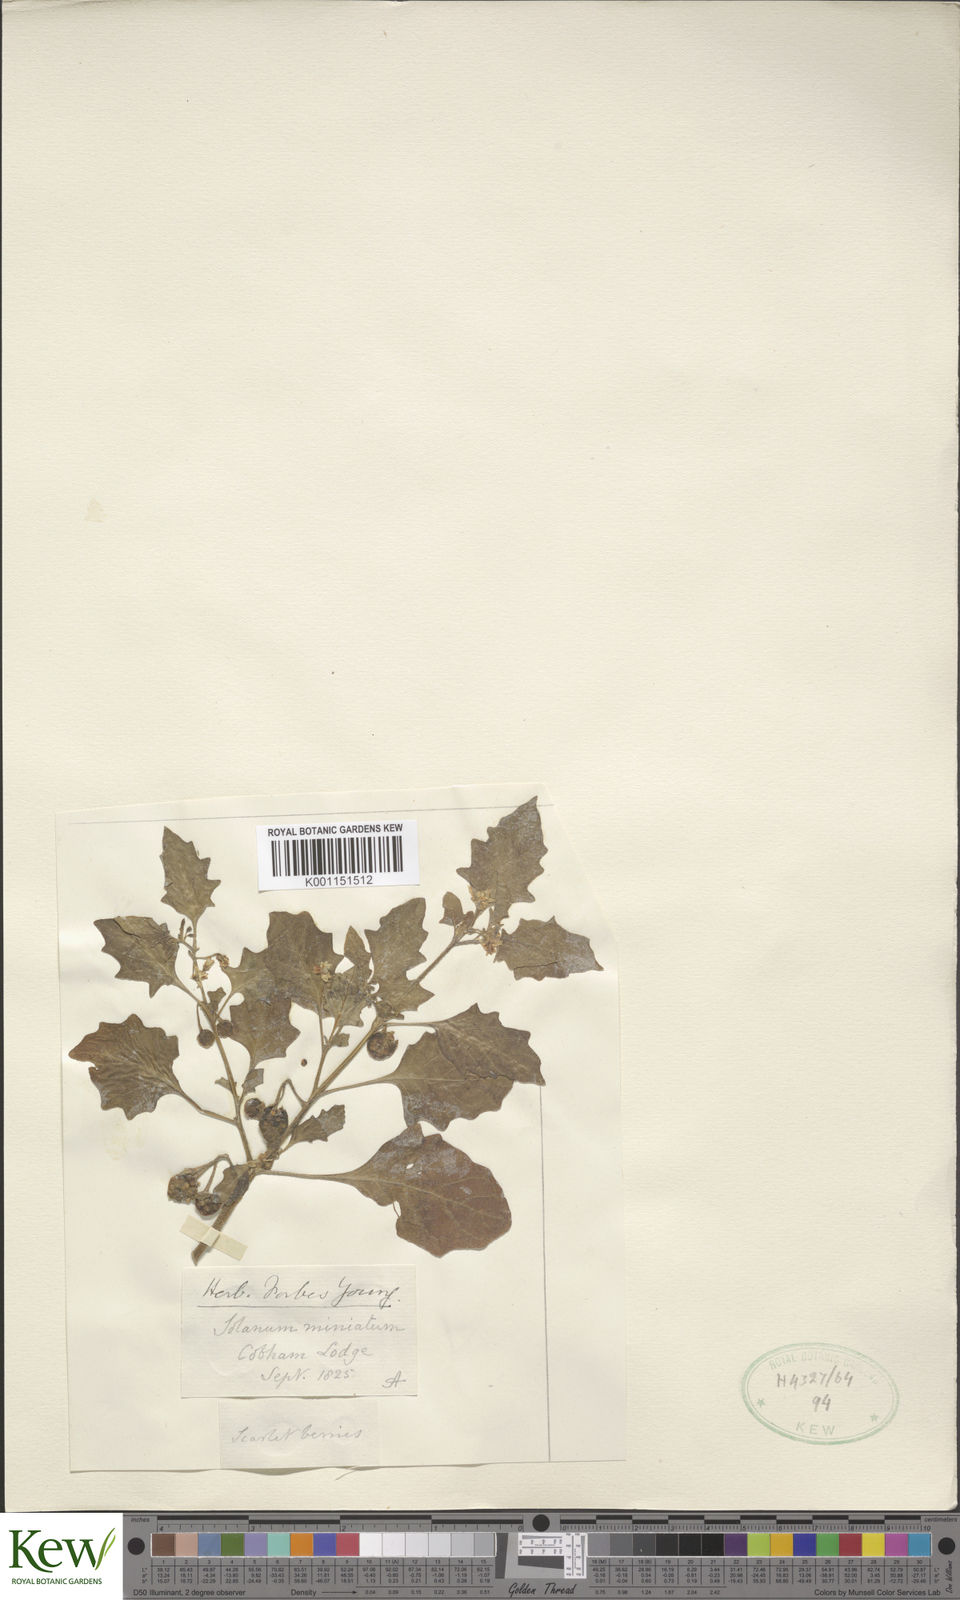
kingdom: Plantae
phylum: Tracheophyta
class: Magnoliopsida
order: Solanales
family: Solanaceae
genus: Solanum
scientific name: Solanum alatum
